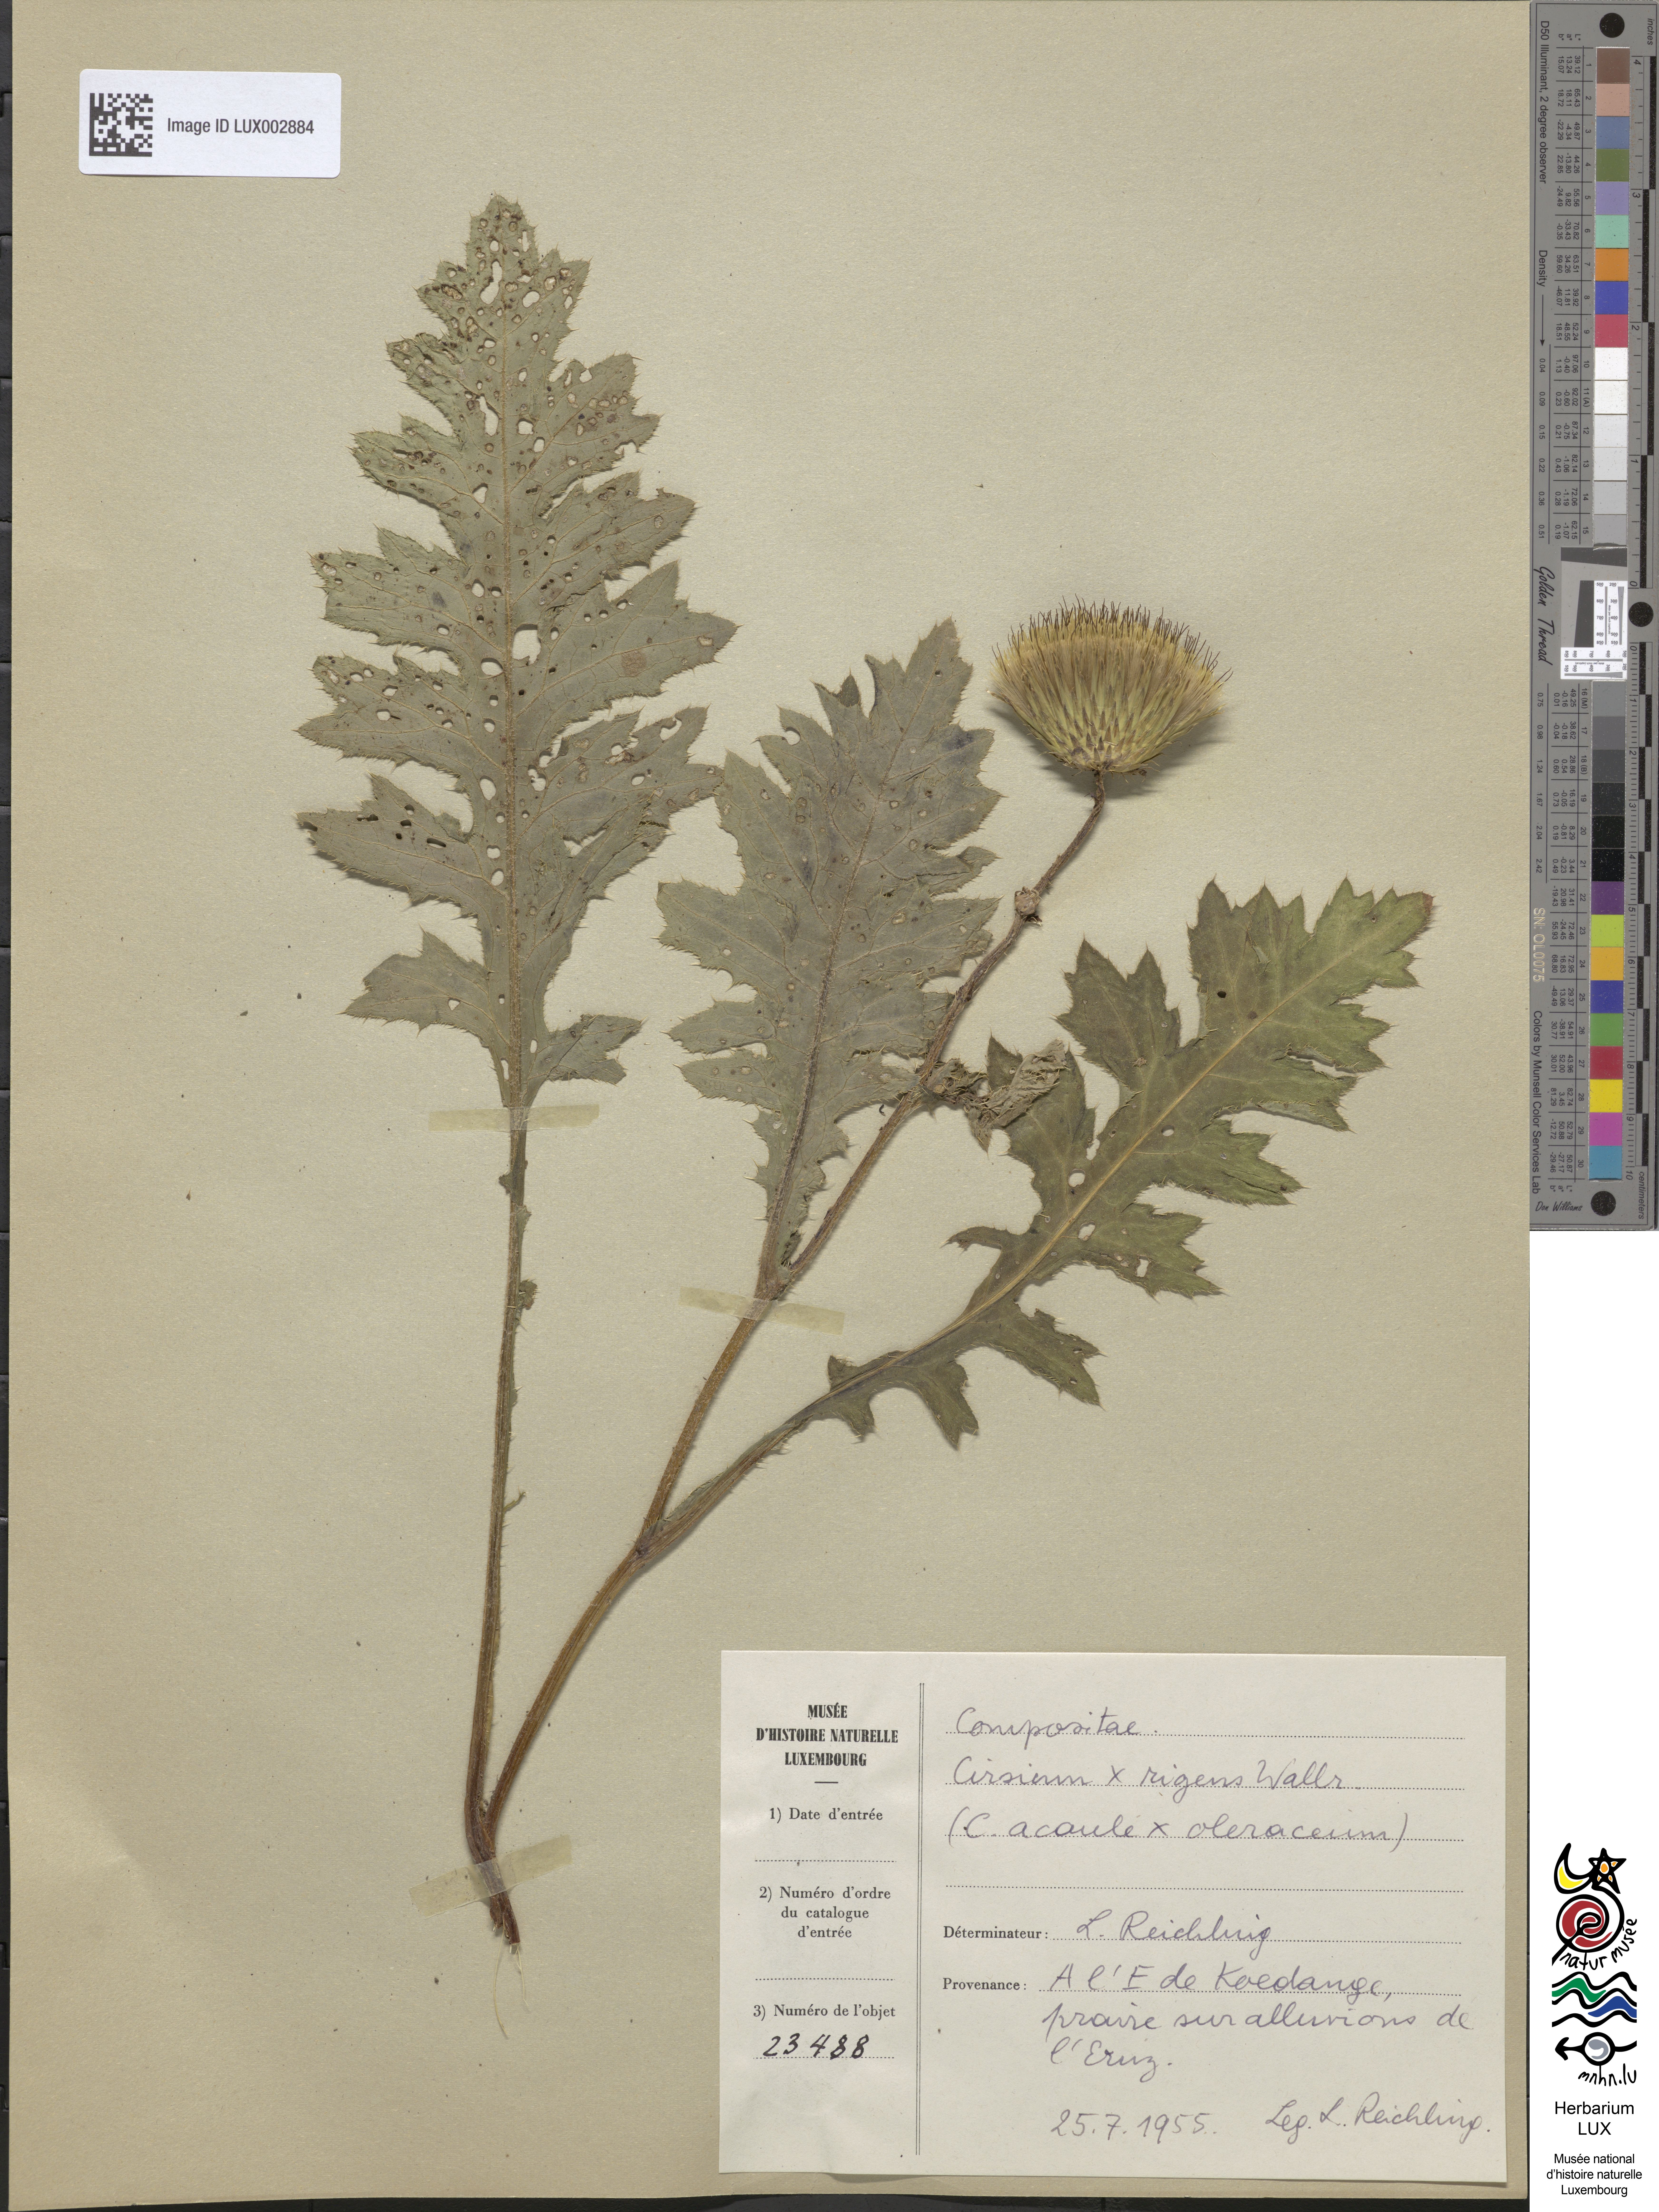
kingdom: Plantae
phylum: Tracheophyta
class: Magnoliopsida
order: Asterales
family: Asteraceae
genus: Cirsium
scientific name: Cirsium rigens
